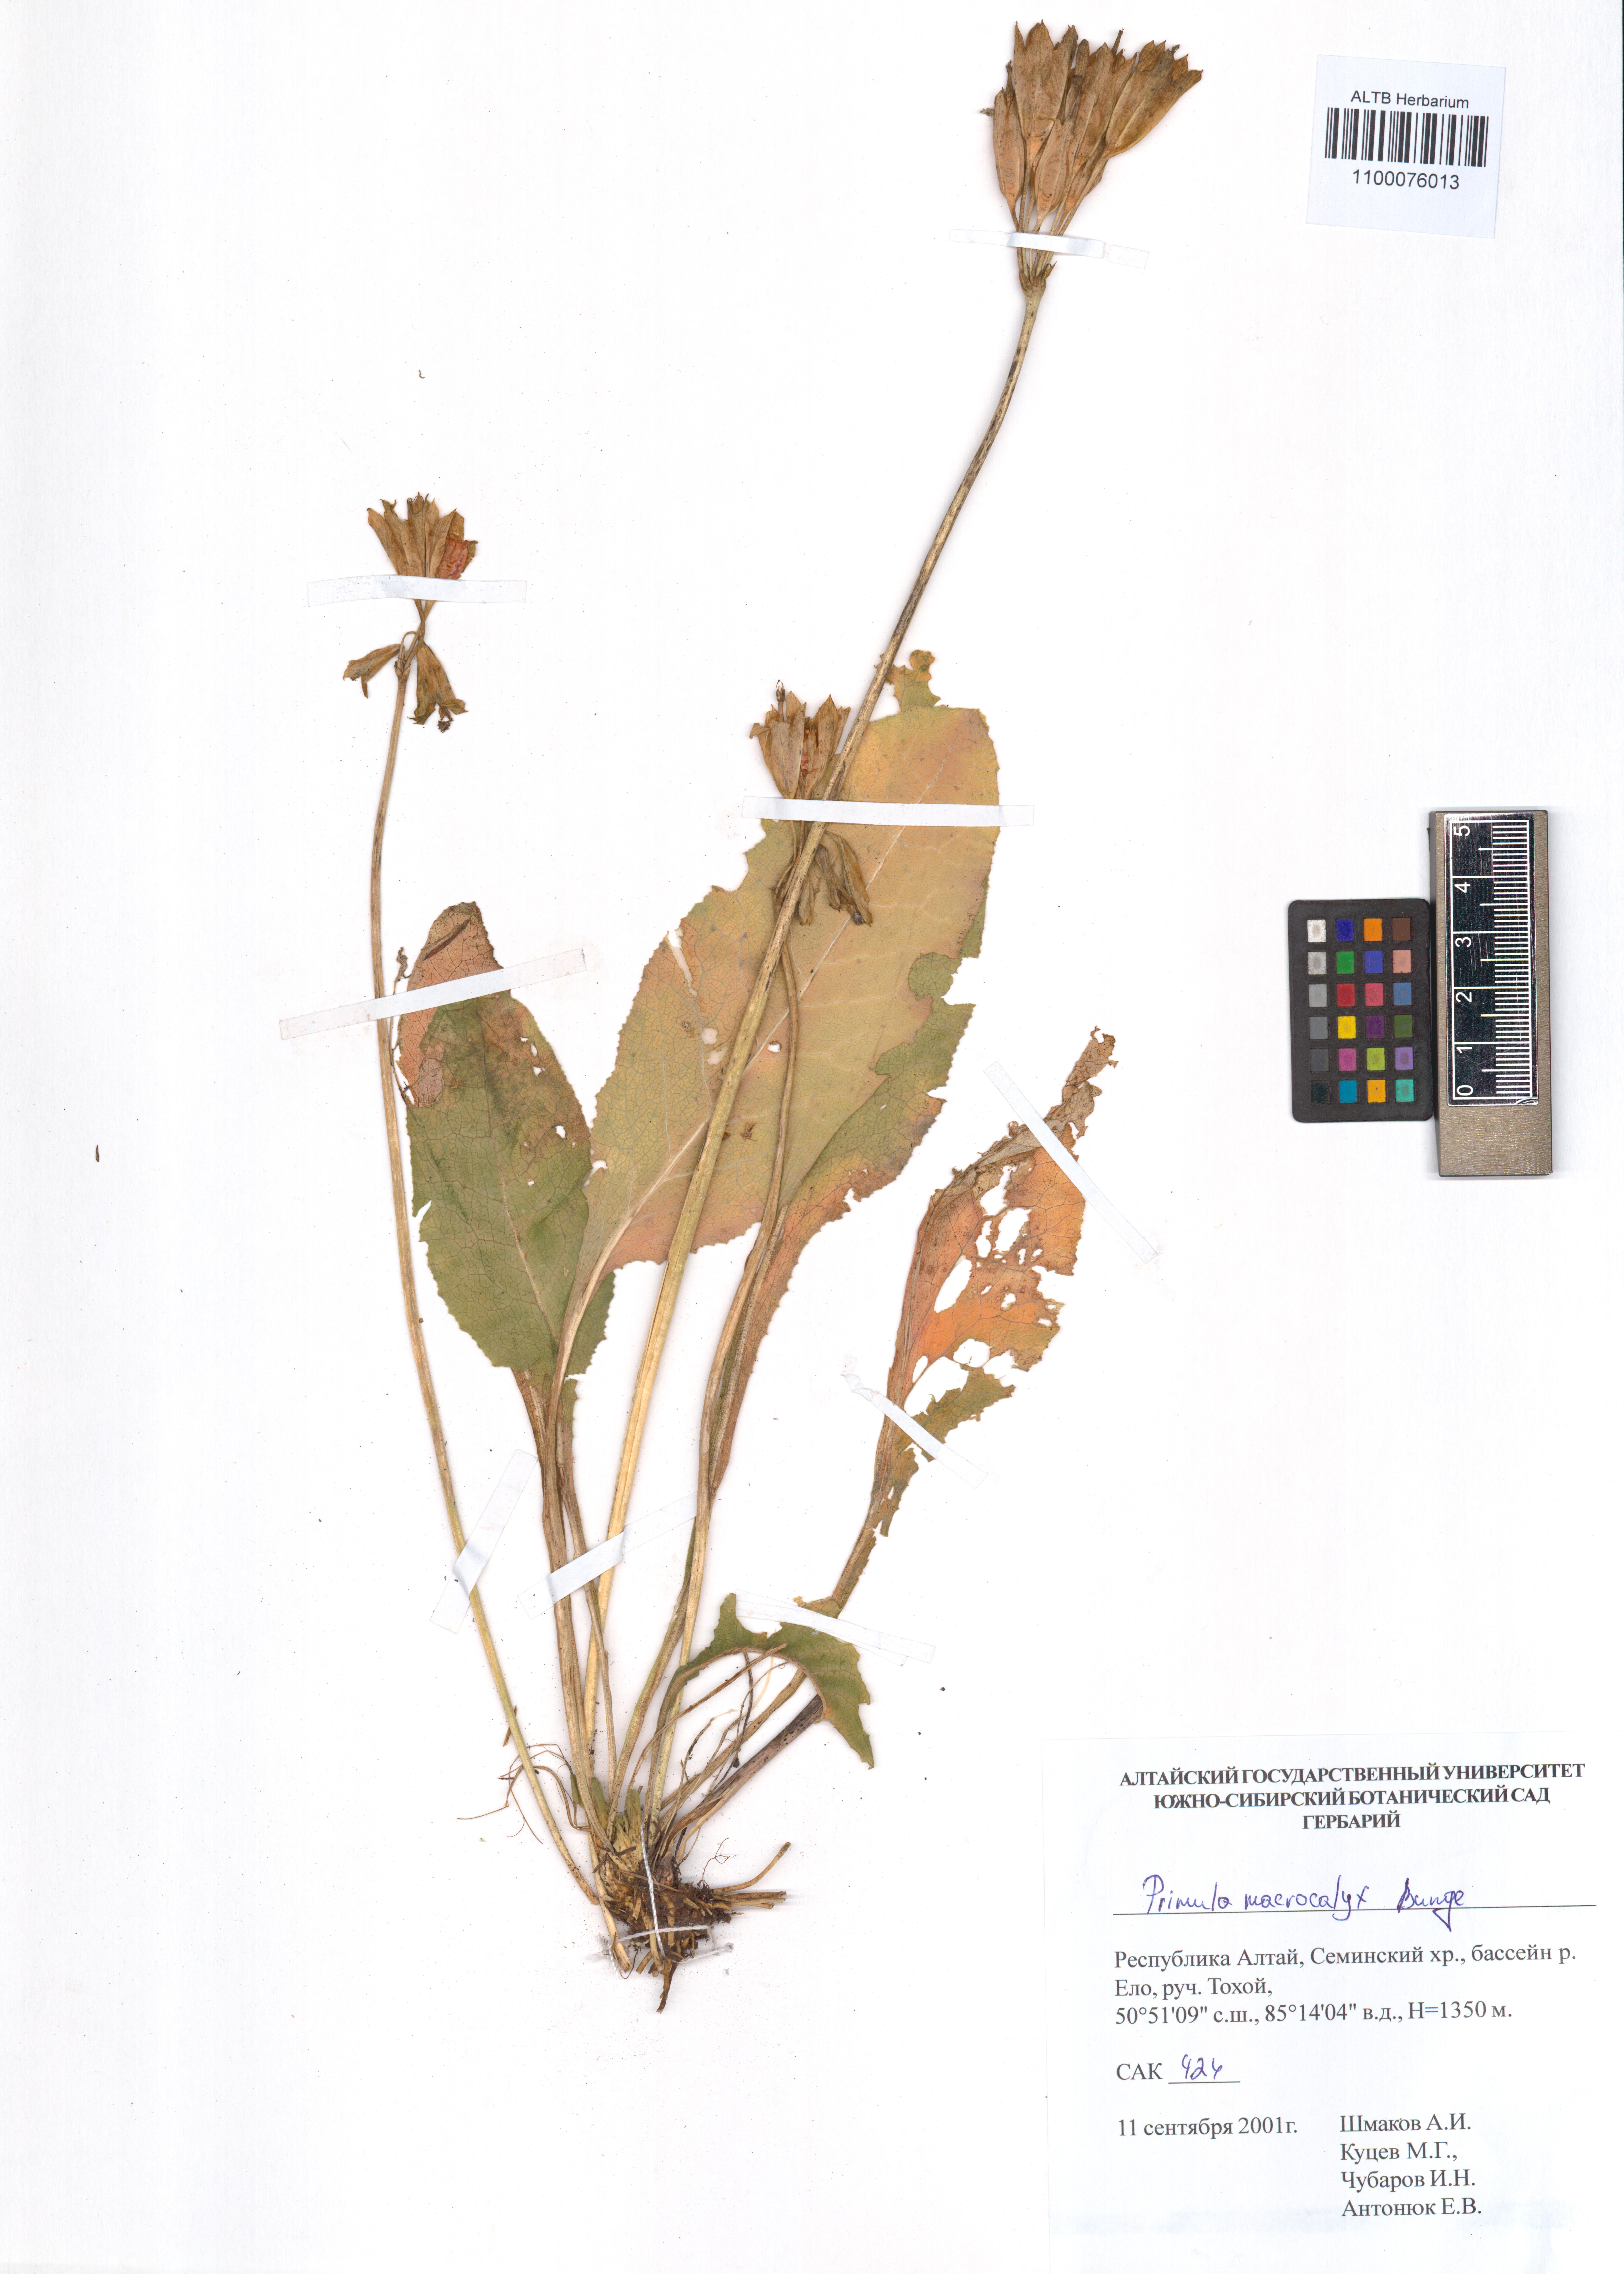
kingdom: Plantae
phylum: Tracheophyta
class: Magnoliopsida
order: Ericales
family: Primulaceae
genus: Primula
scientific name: Primula veris
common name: Cowslip
